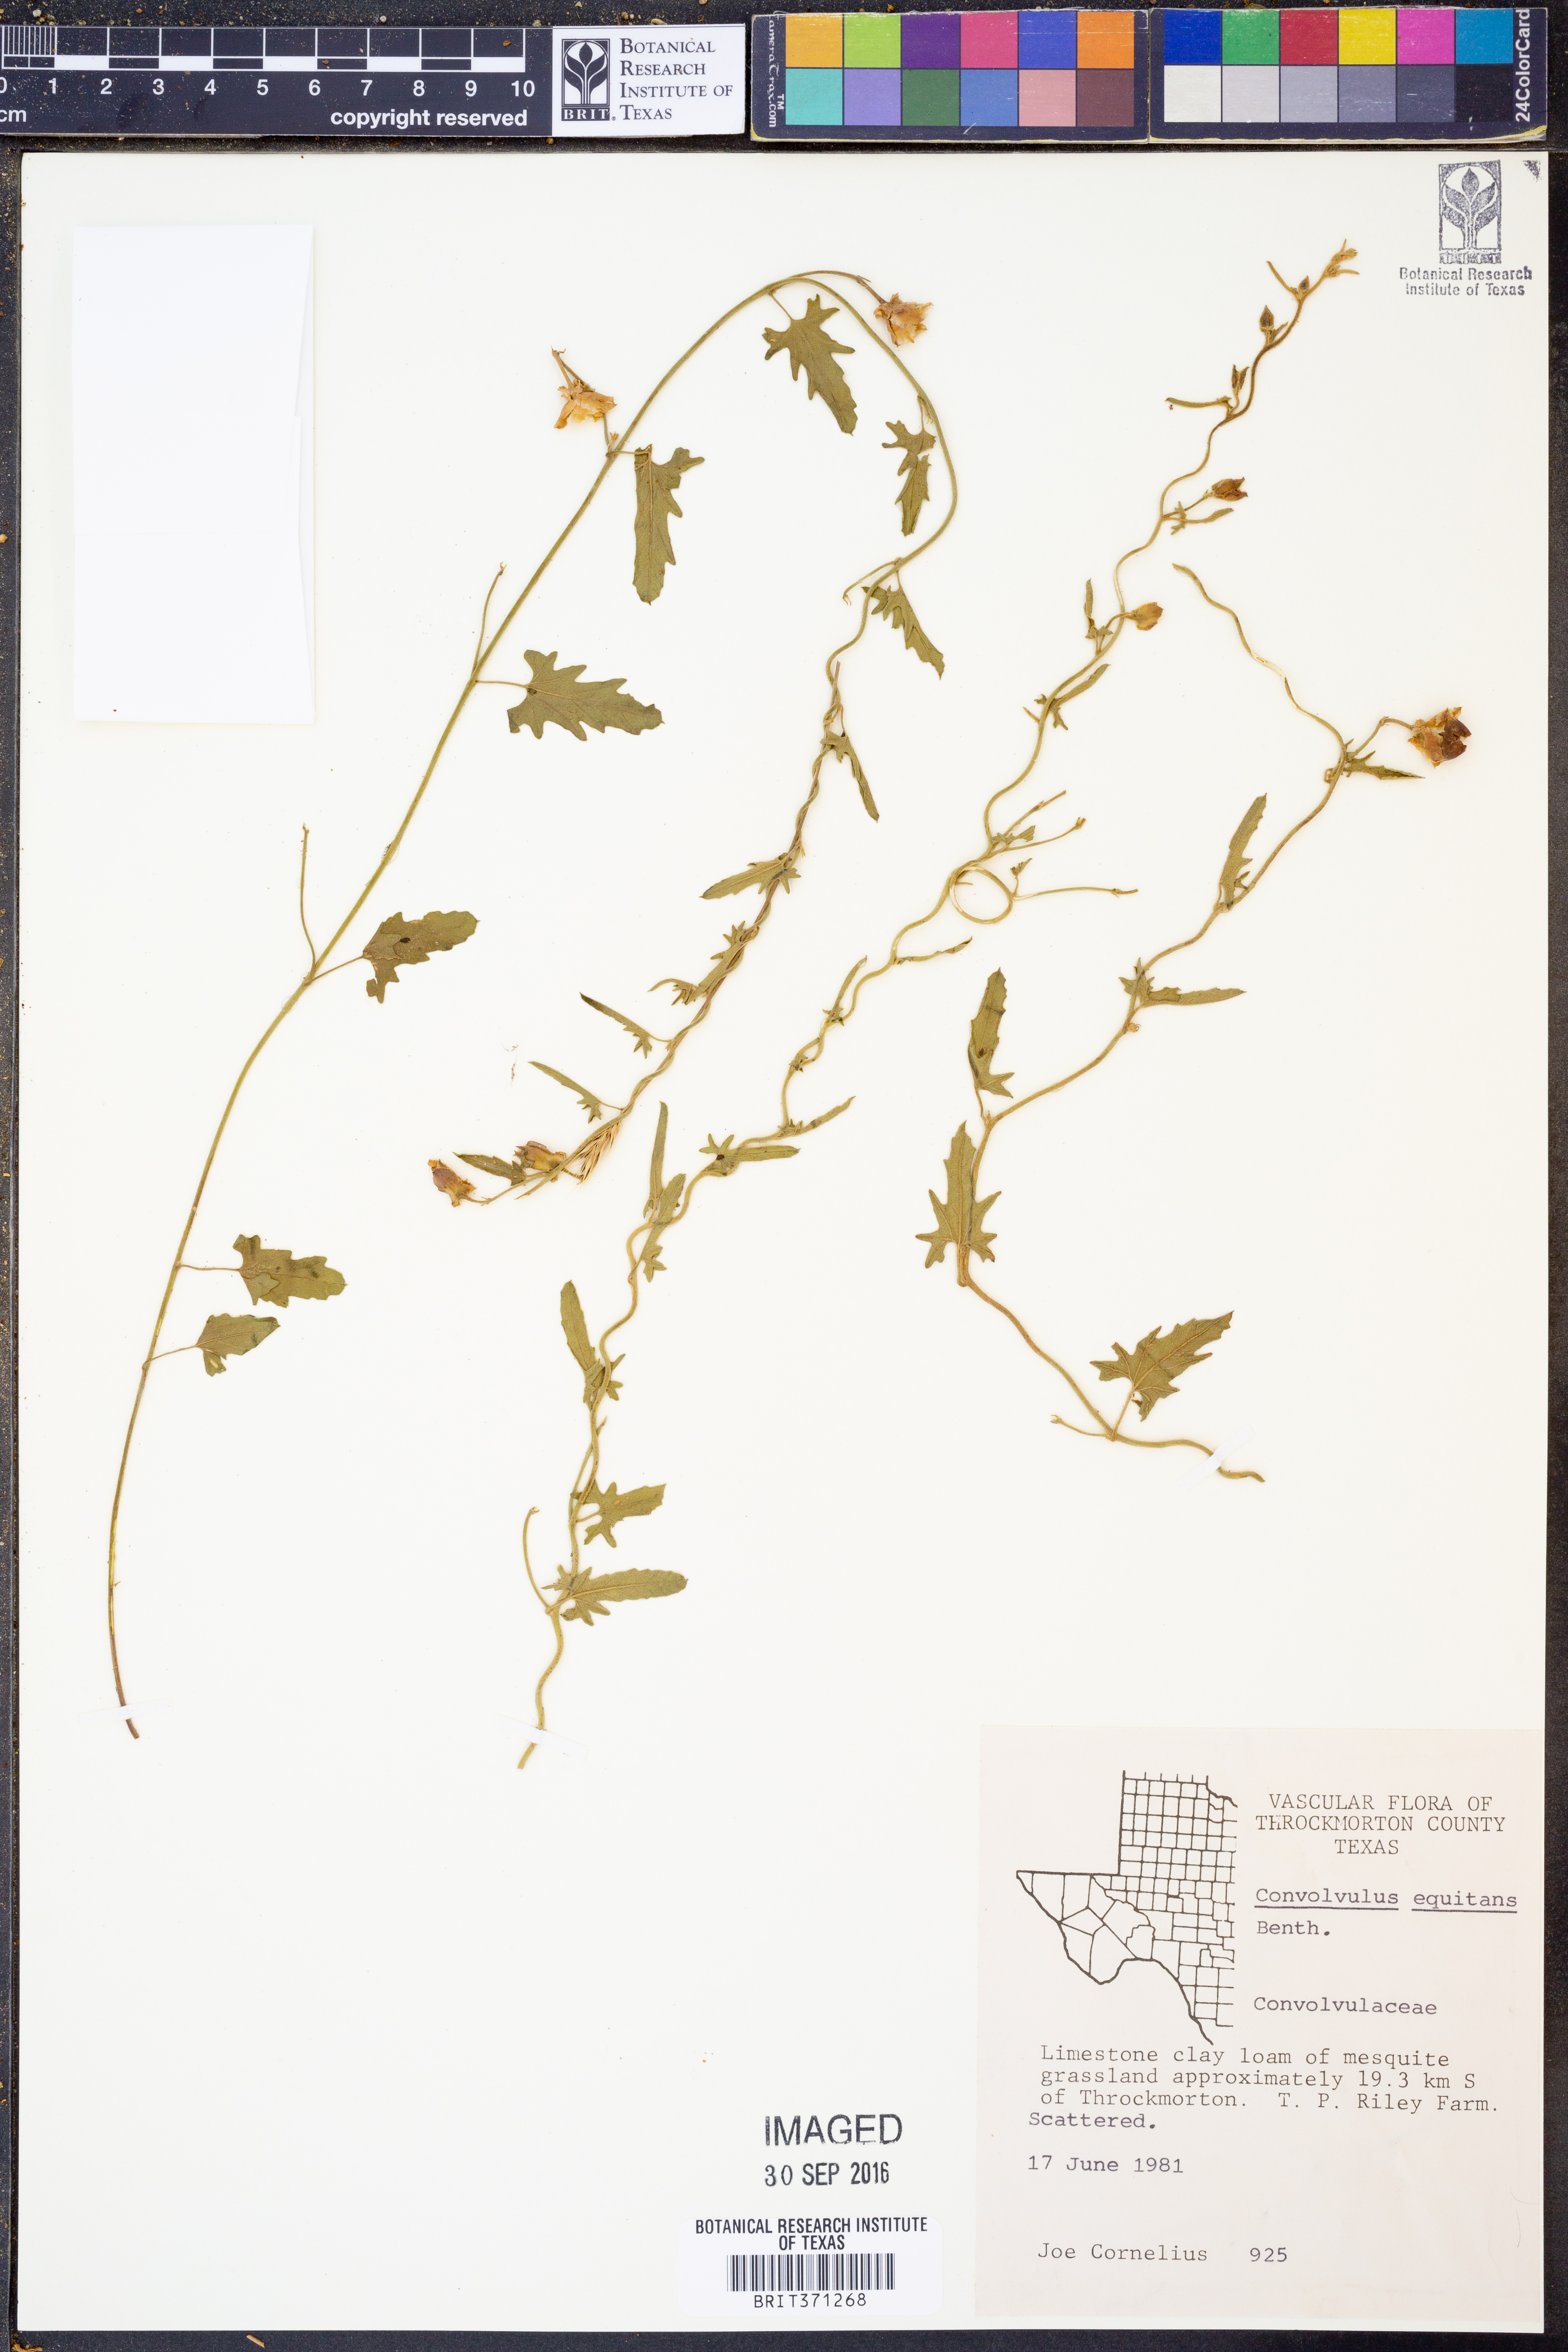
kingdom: Plantae
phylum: Tracheophyta
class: Magnoliopsida
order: Solanales
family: Convolvulaceae
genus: Convolvulus
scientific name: Convolvulus equitans
